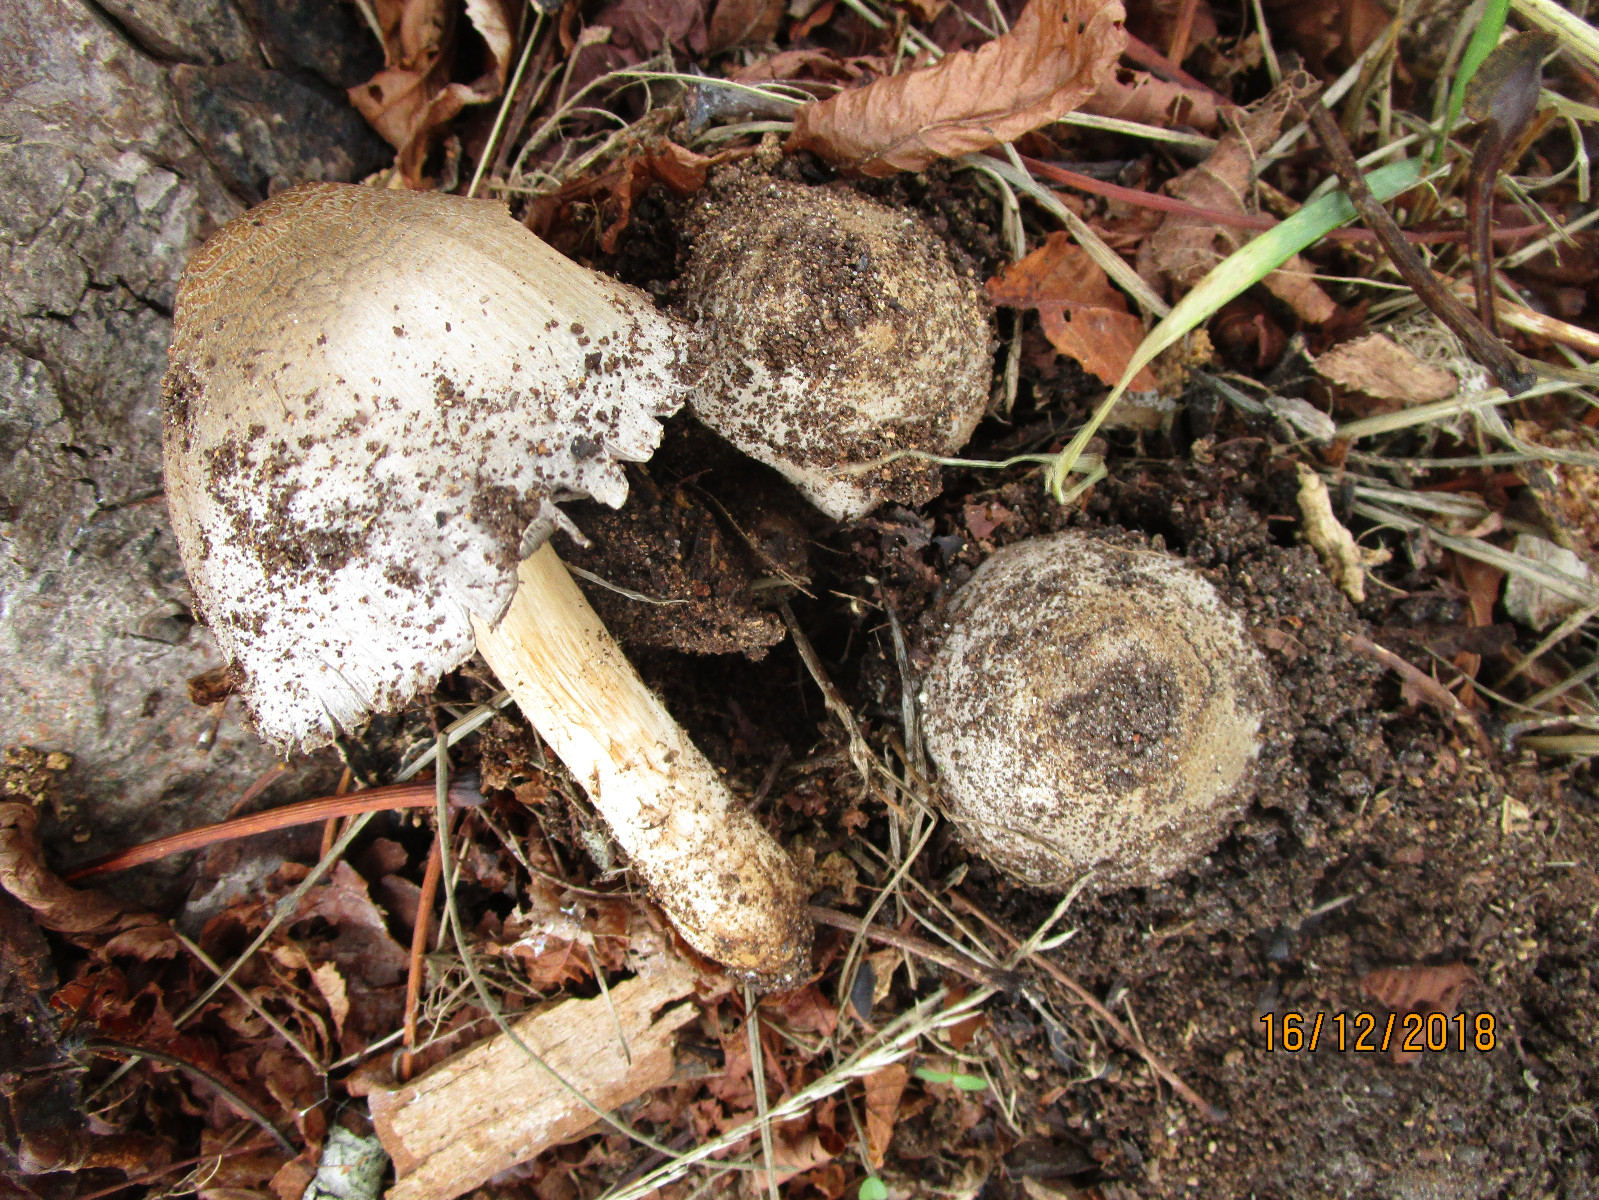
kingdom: Fungi
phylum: Basidiomycota
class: Agaricomycetes
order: Agaricales
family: Psathyrellaceae
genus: Coprinopsis
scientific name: Coprinopsis atramentaria
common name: almindelig blækhat
